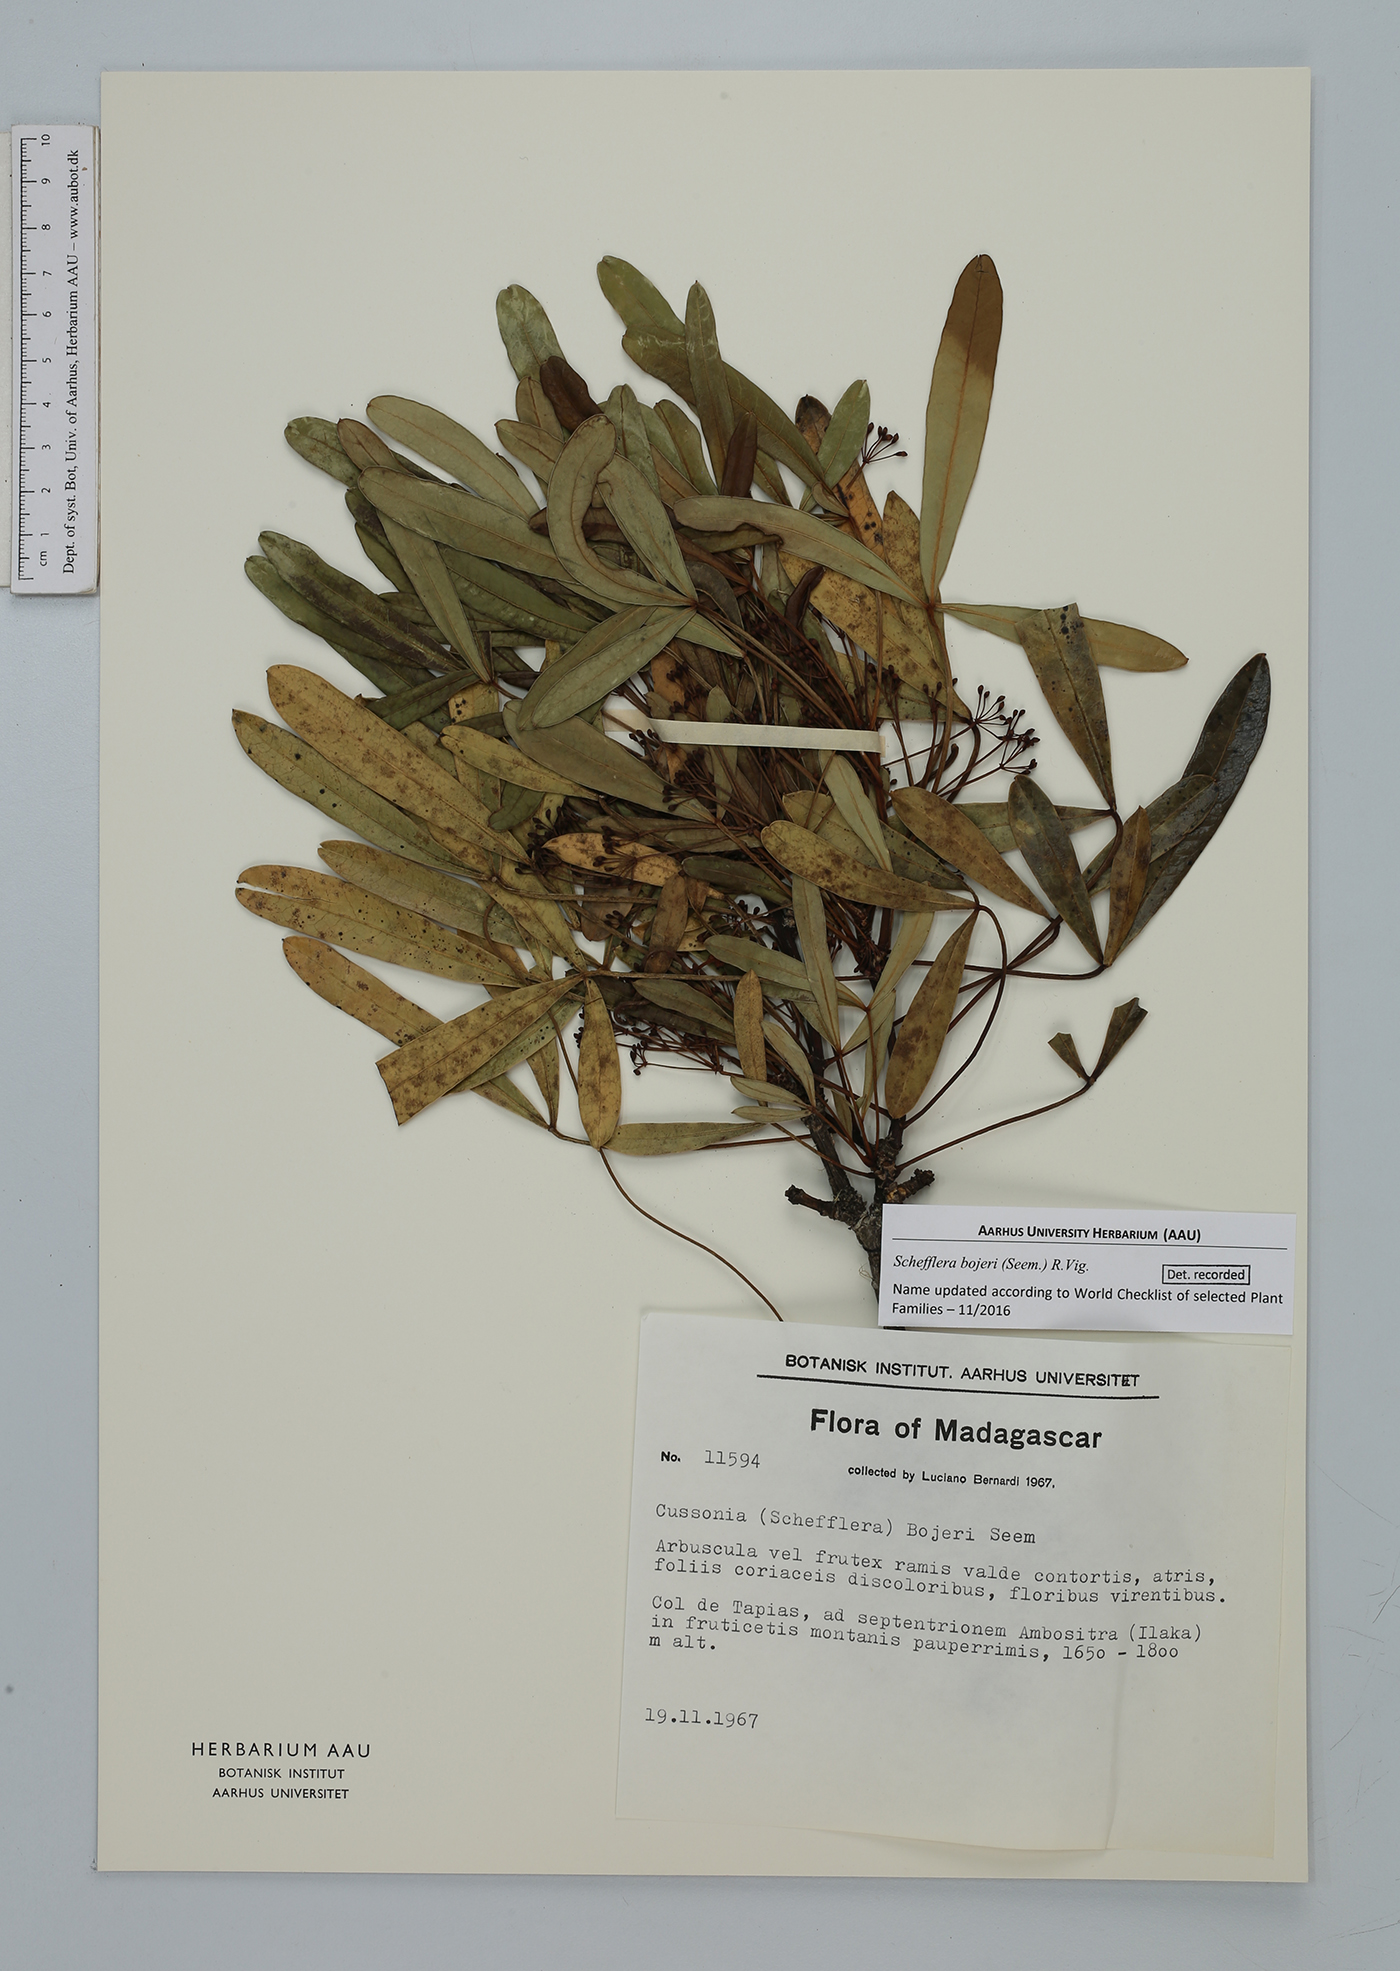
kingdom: Plantae
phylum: Tracheophyta
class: Magnoliopsida
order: Apiales
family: Araliaceae
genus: Neocussonia
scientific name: Neocussonia bojeri
